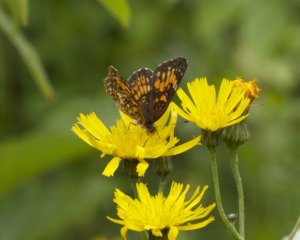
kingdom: Animalia
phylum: Arthropoda
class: Insecta
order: Lepidoptera
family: Nymphalidae
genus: Chlosyne
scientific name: Chlosyne harrisii
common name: Harris's Checkerspot
